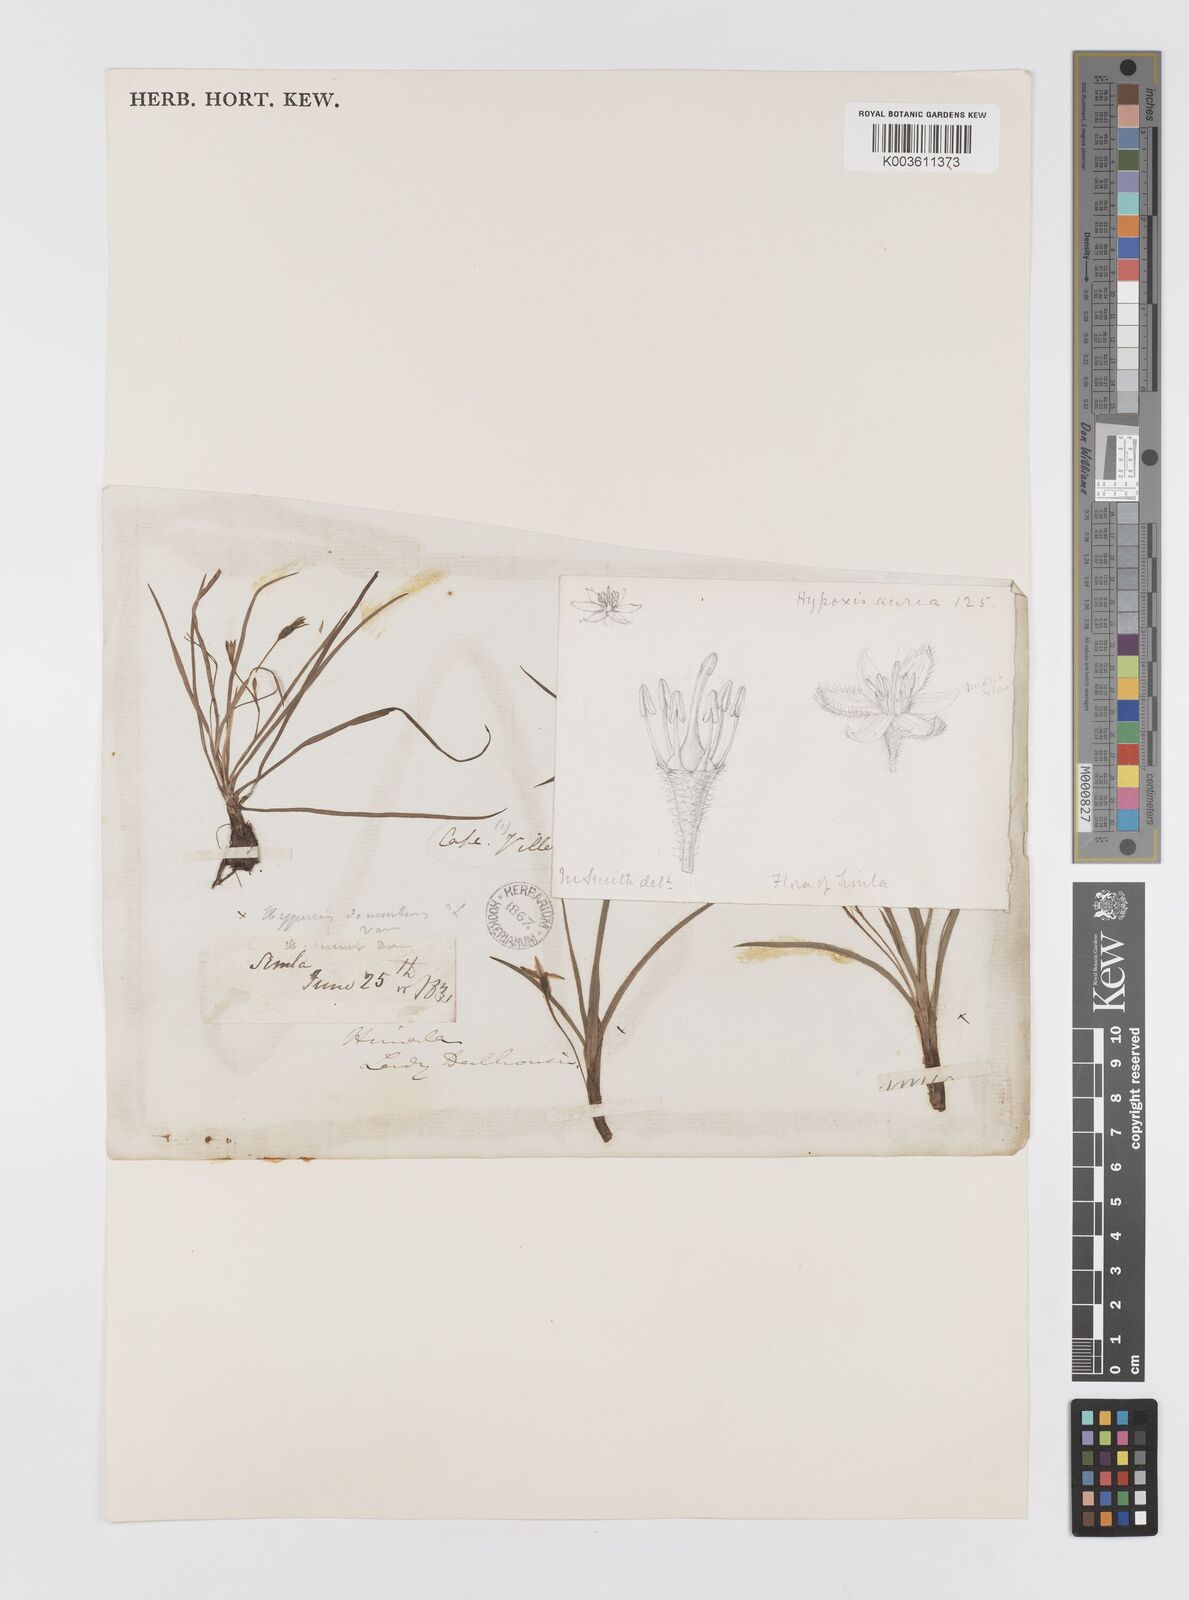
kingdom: Plantae
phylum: Tracheophyta
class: Liliopsida
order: Asparagales
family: Hypoxidaceae
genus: Hypoxis
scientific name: Hypoxis aurea
